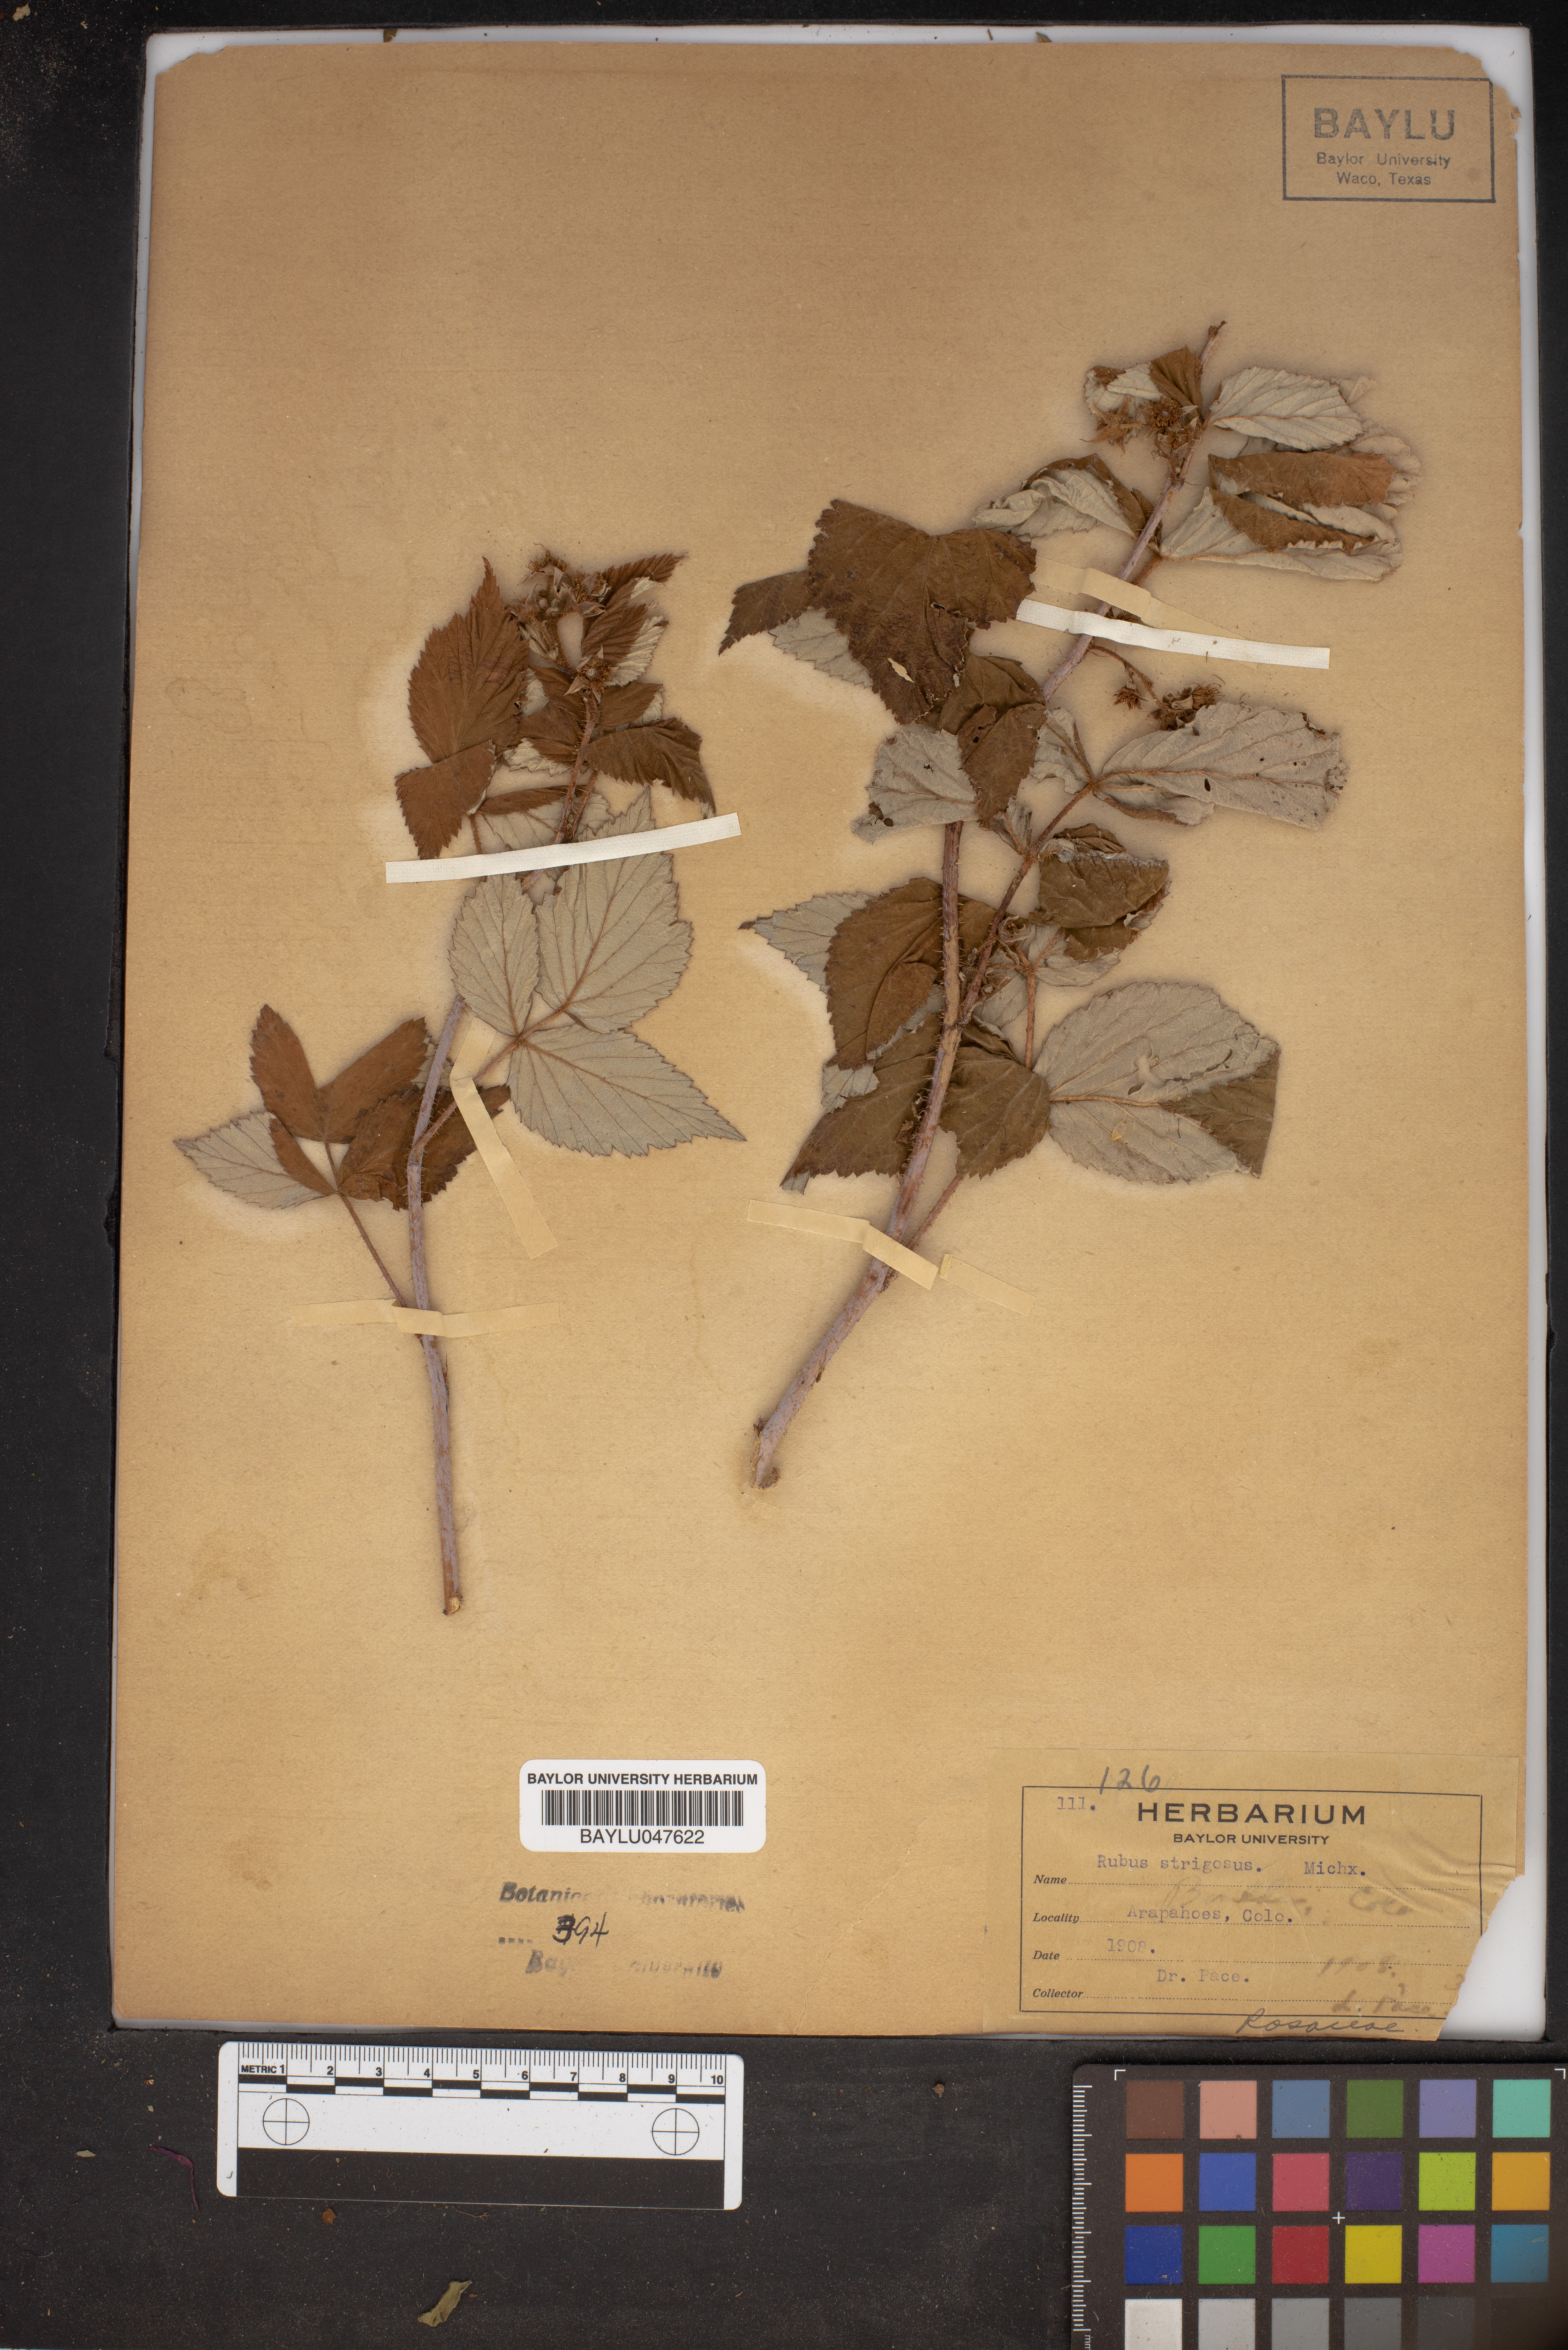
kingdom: Plantae
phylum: Tracheophyta
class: Magnoliopsida
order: Rosales
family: Rosaceae
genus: Rubus
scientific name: Rubus idaeus
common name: Raspberry
